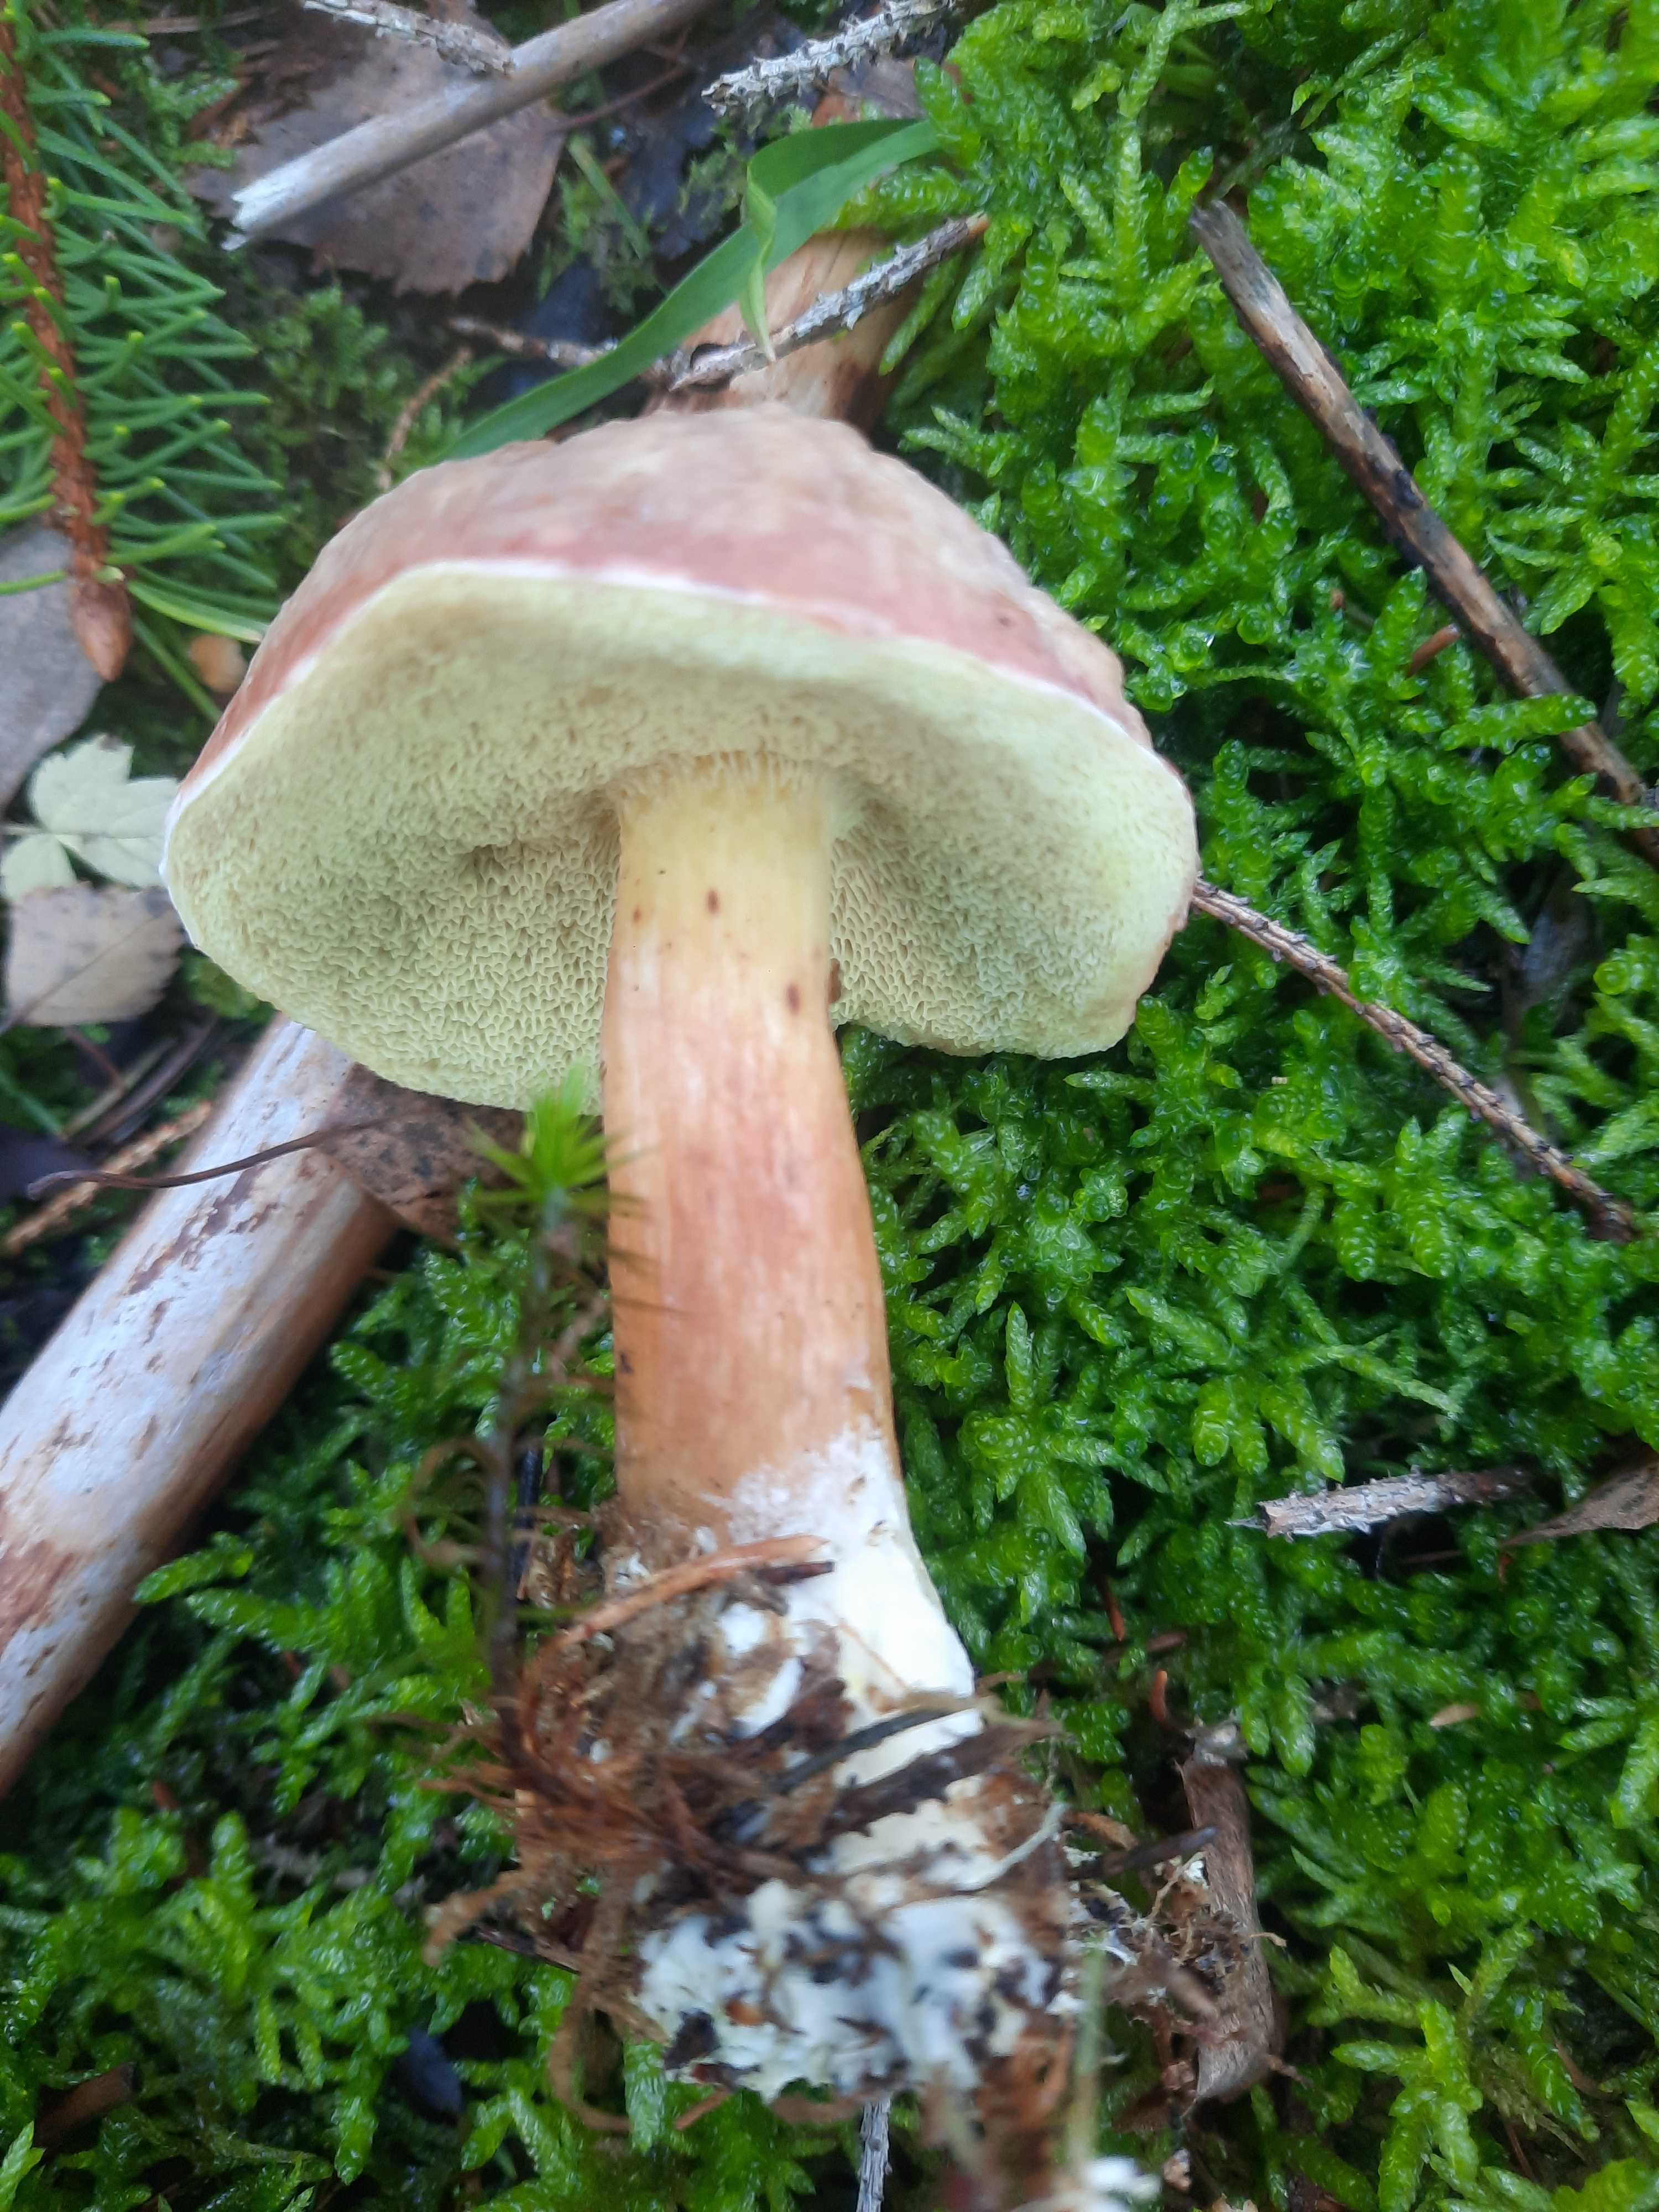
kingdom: Fungi
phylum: Basidiomycota
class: Agaricomycetes
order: Boletales
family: Boletaceae
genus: Xerocomellus
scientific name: Xerocomellus pruinatus
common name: dugget rørhat
